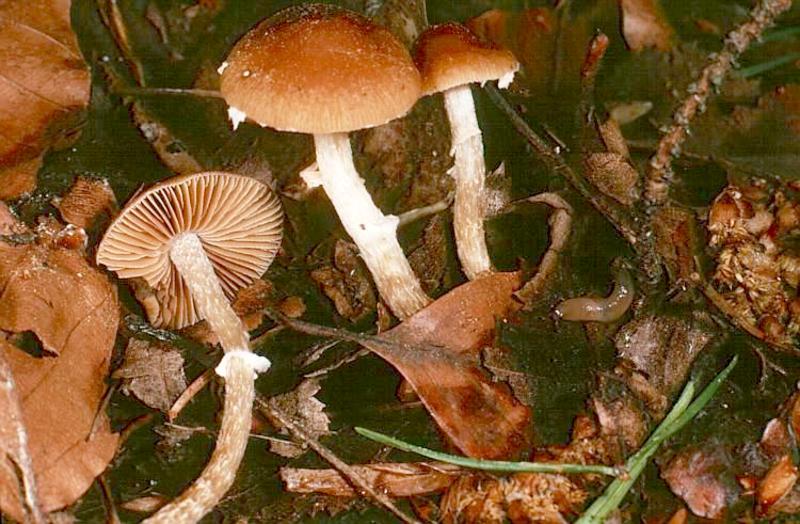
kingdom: Fungi
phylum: Basidiomycota
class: Agaricomycetes
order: Agaricales
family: Bolbitiaceae
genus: Conocybe
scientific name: Conocybe aporos
